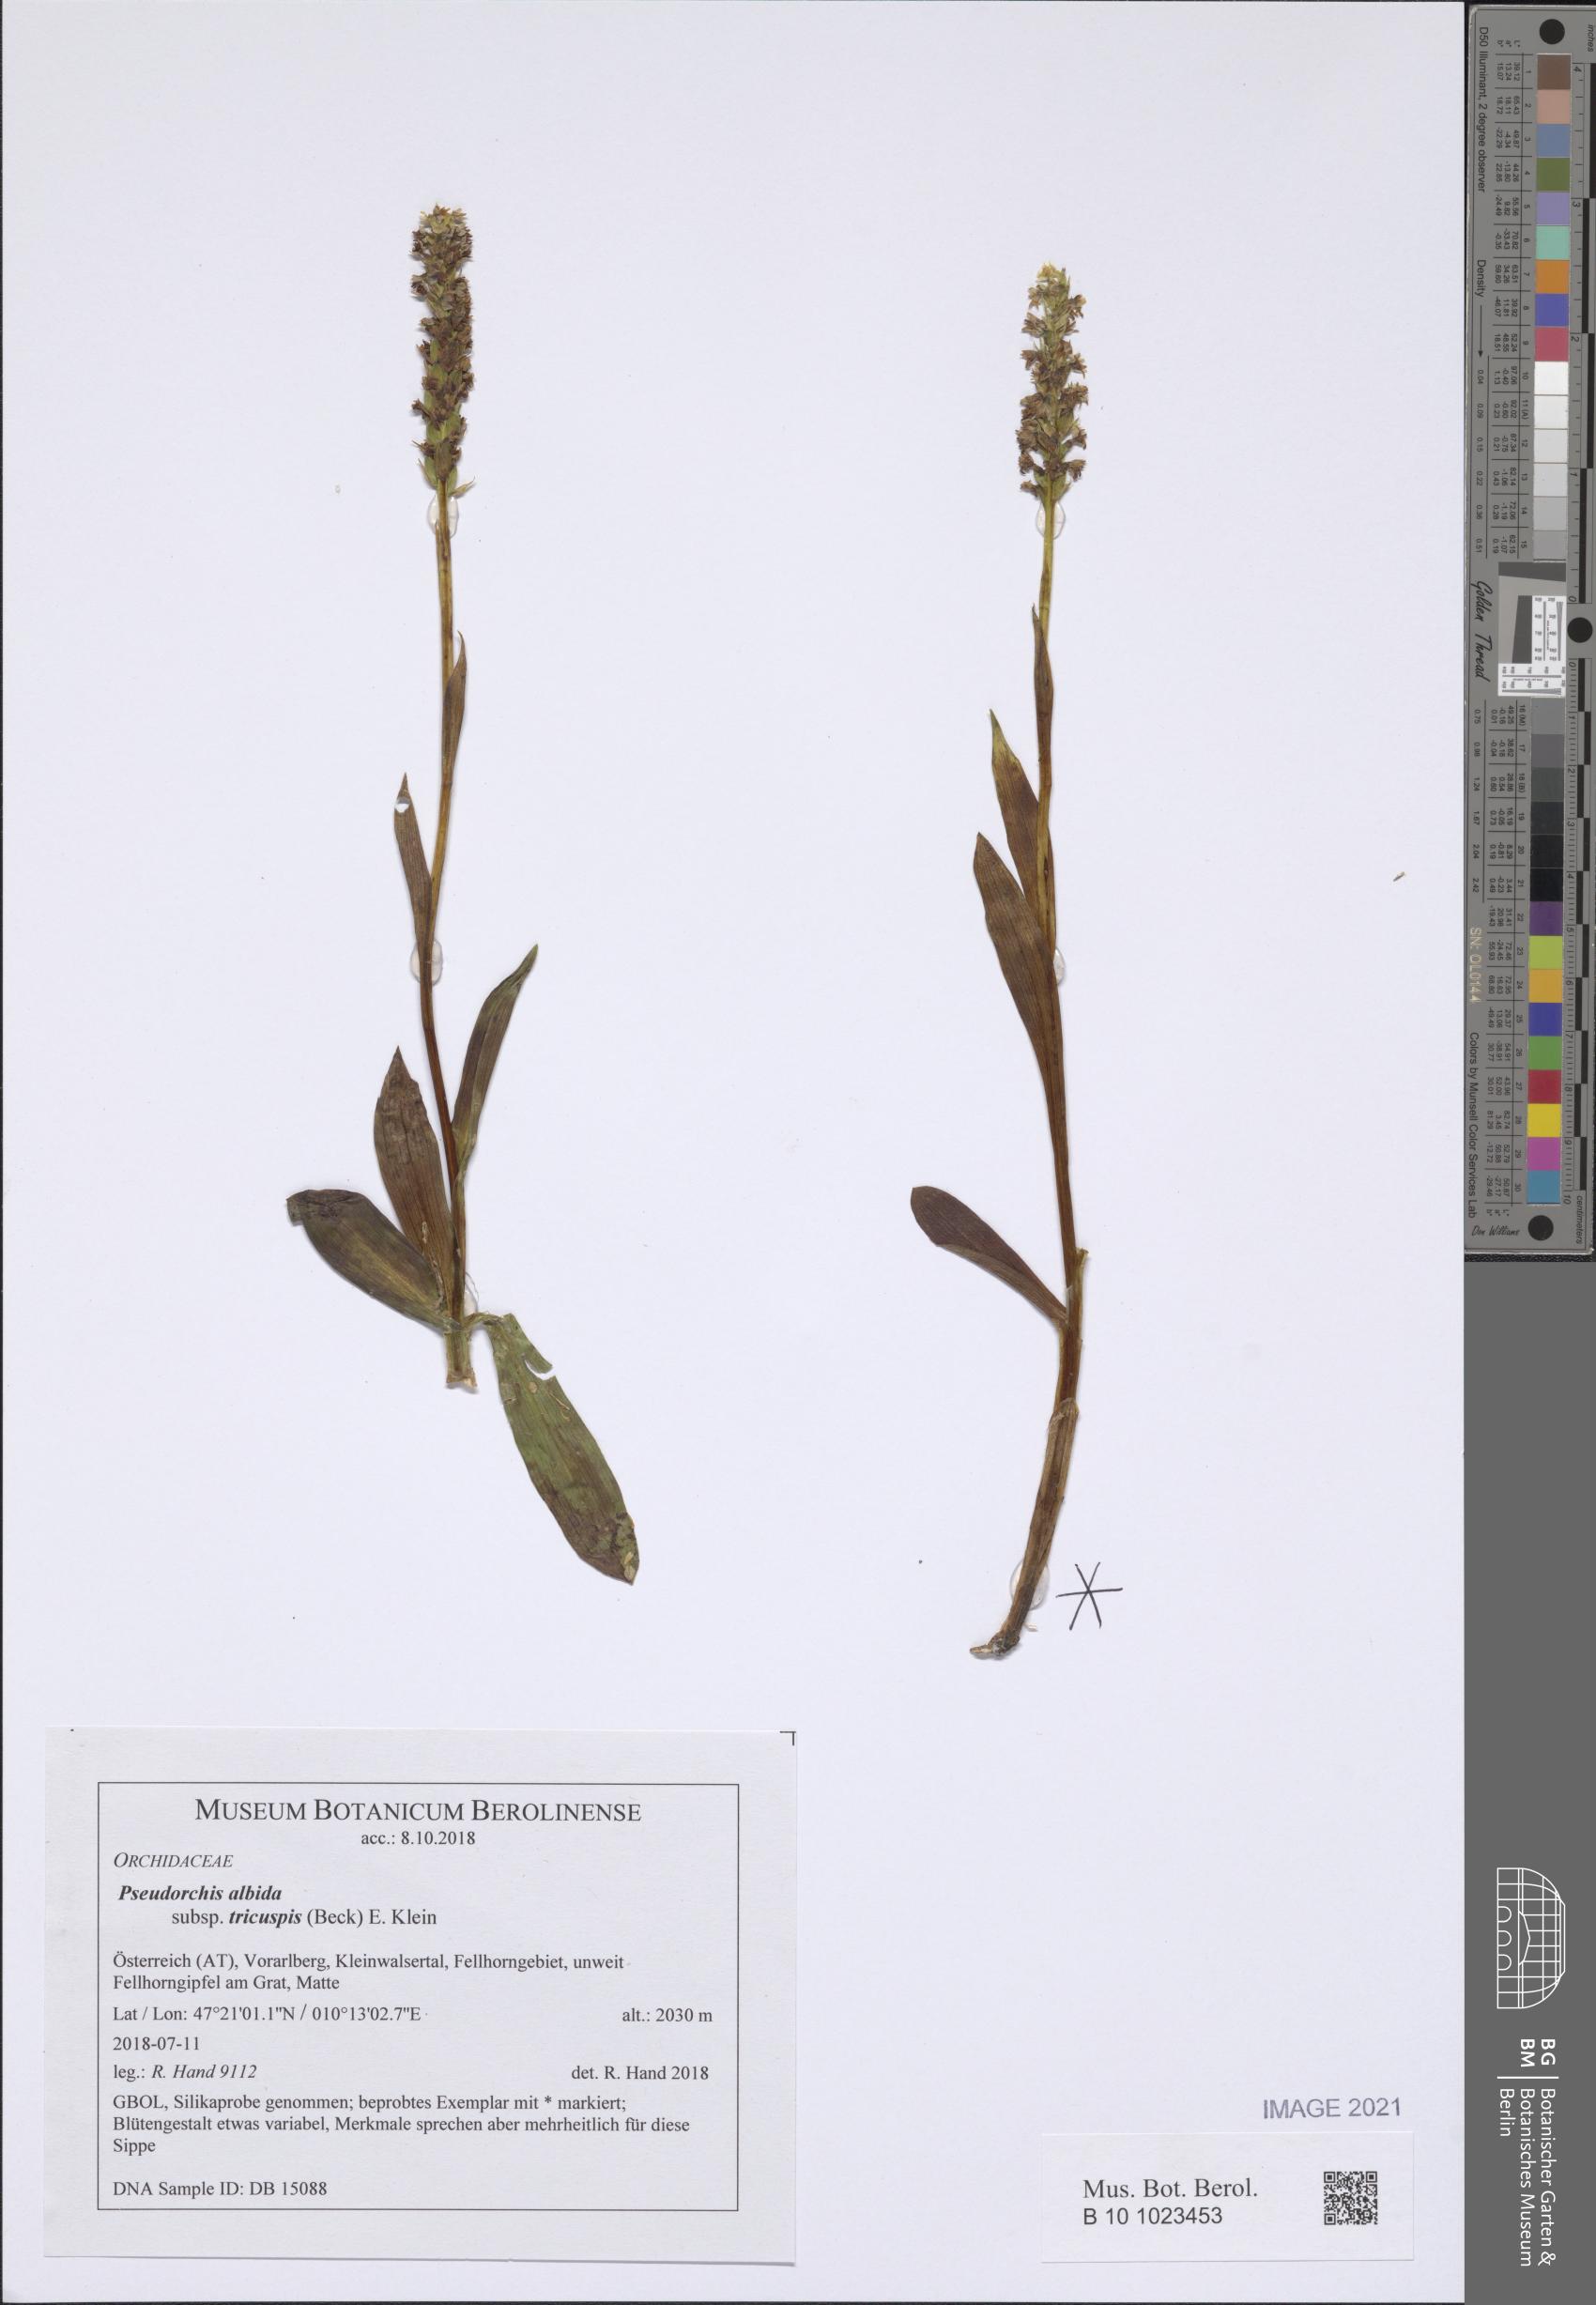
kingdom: Plantae
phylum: Tracheophyta
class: Liliopsida
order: Asparagales
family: Orchidaceae
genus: Pseudorchis
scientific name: Pseudorchis albida
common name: Small-white orchid
